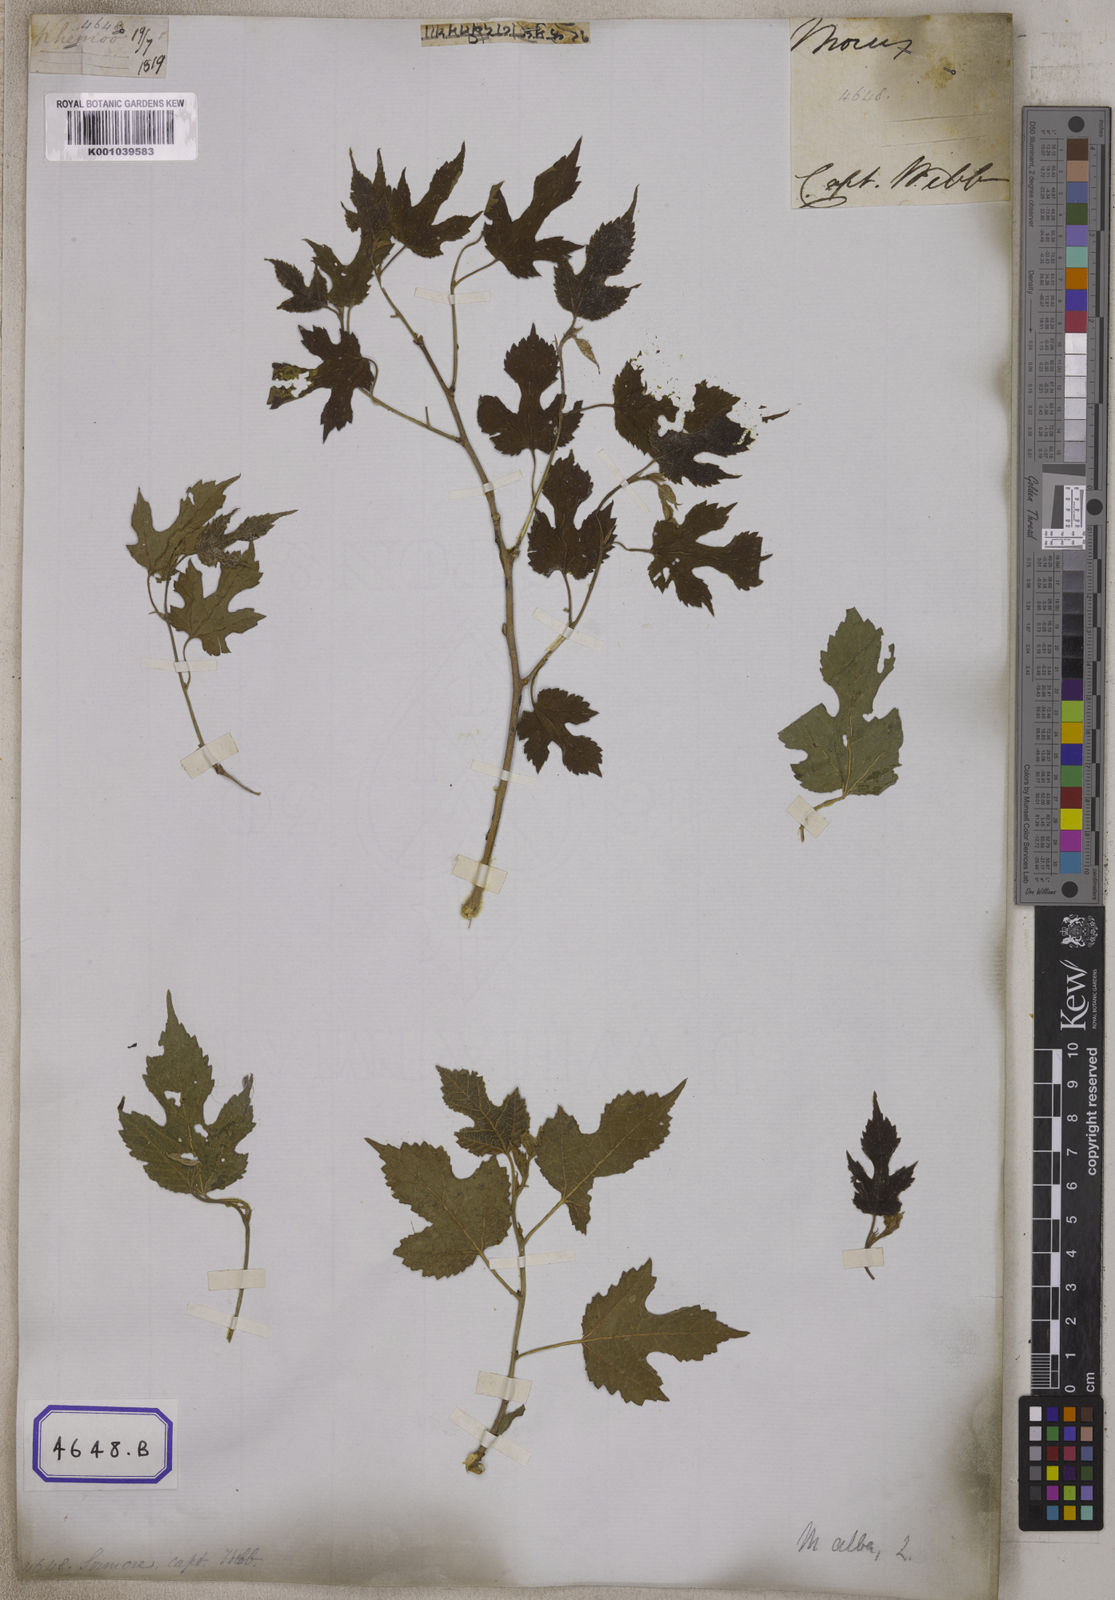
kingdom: Plantae
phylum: Tracheophyta
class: Magnoliopsida
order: Rosales
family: Moraceae
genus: Morus
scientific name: Morus alba
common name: White mulberry
